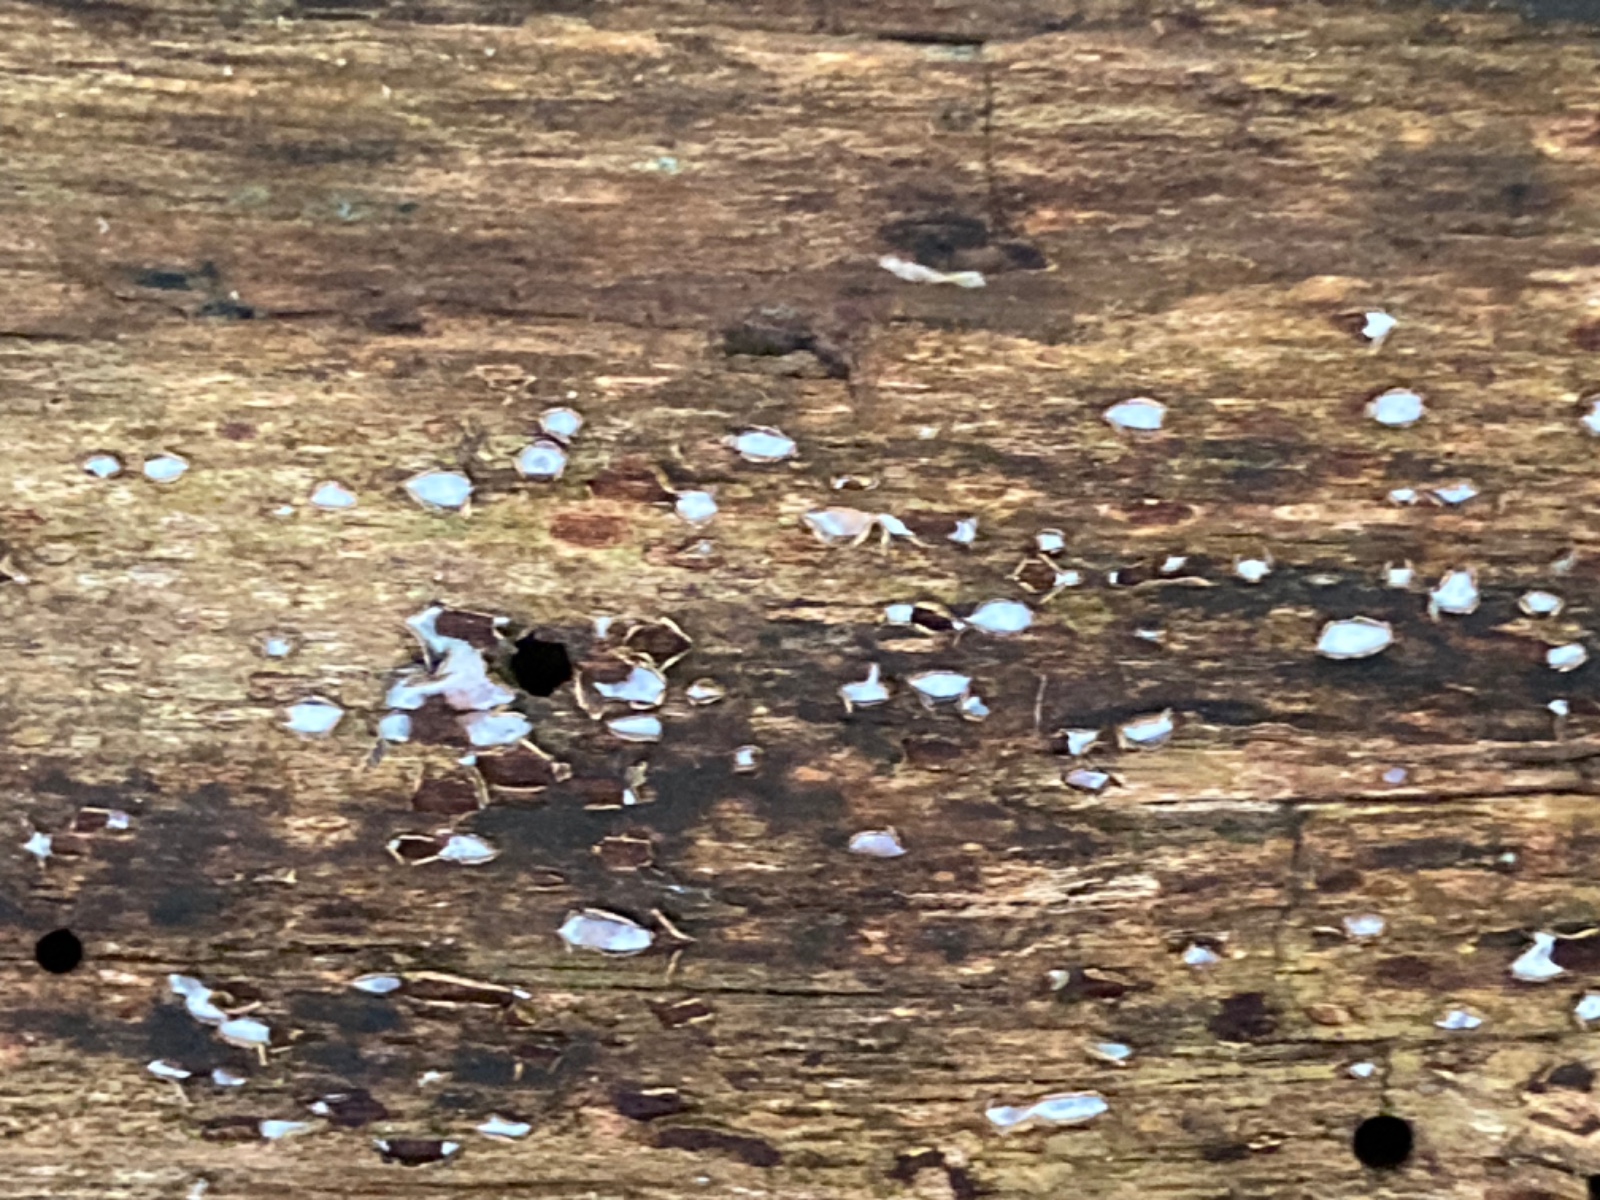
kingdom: Fungi
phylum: Ascomycota
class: Leotiomycetes
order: Chaetomellales
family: Marthamycetaceae
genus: Propolis
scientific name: Propolis farinosa
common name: almindelig vedsprængerskive
